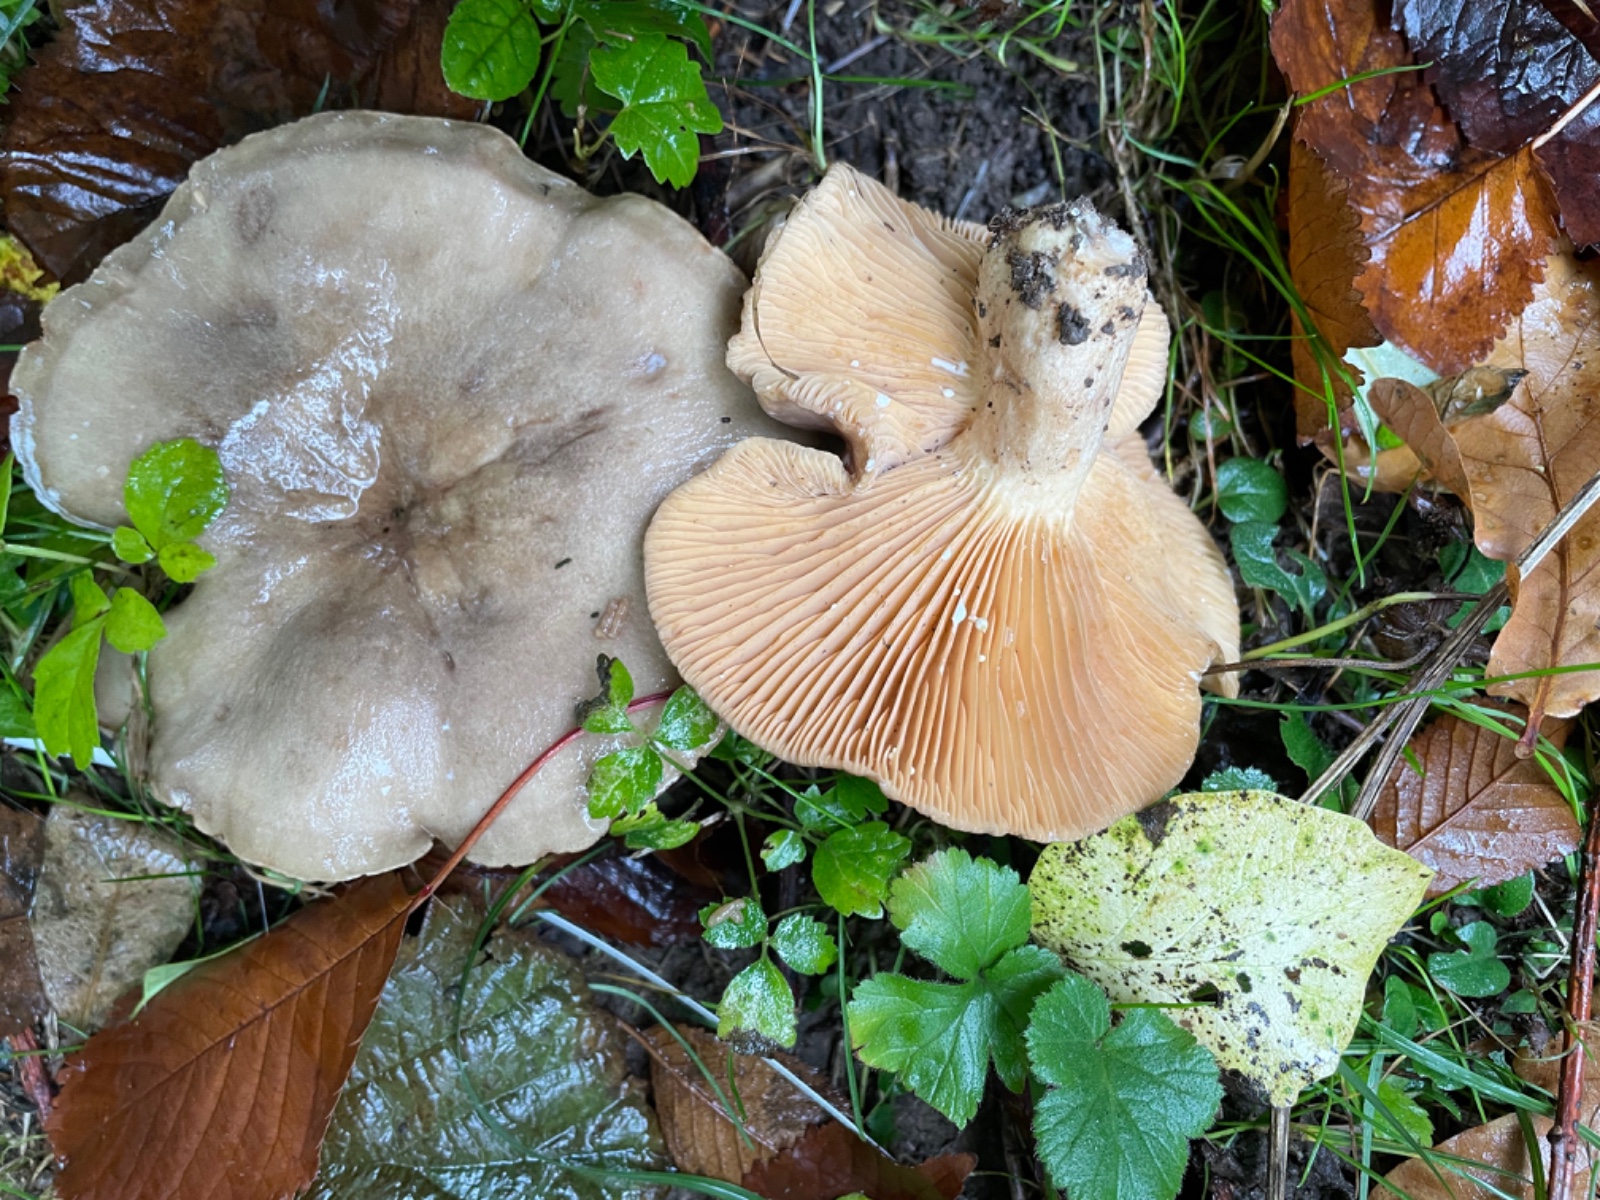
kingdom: Fungi
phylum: Basidiomycota
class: Agaricomycetes
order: Russulales
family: Russulaceae
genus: Lactarius
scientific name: Lactarius pyrogalus
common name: hassel-mælkehat
